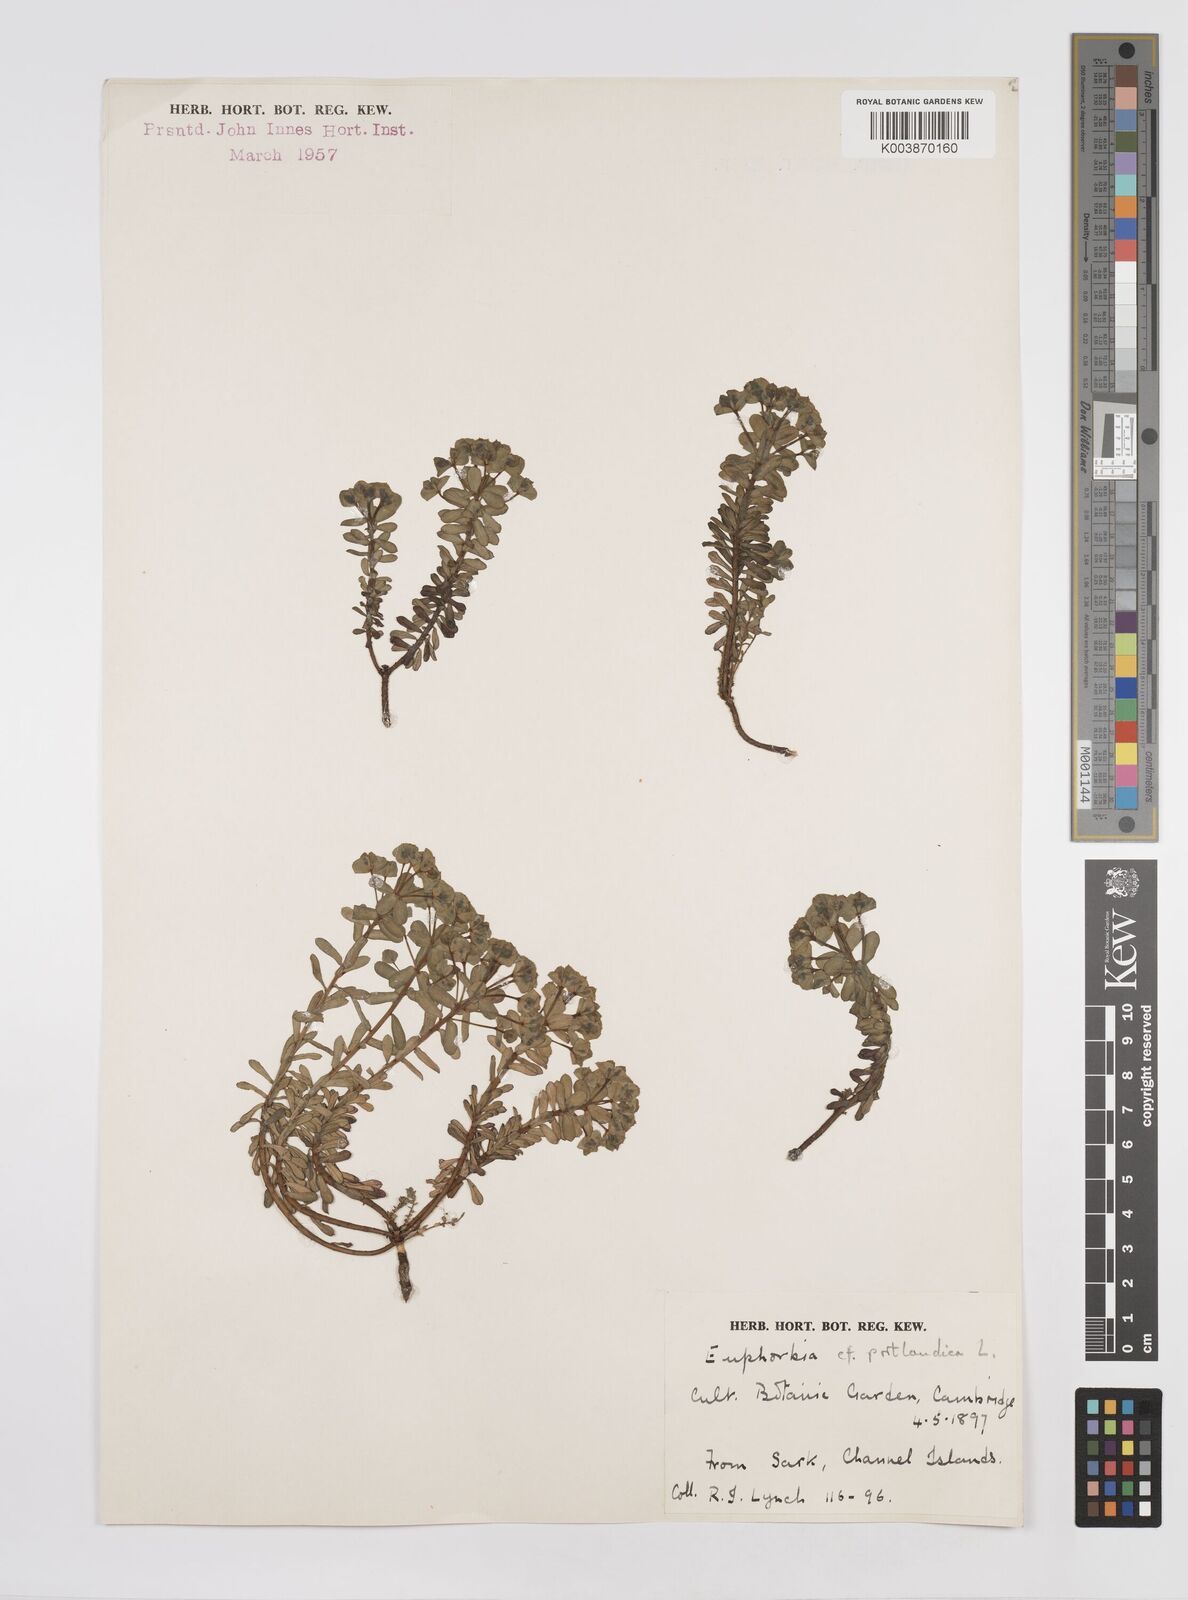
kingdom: Plantae
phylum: Tracheophyta
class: Magnoliopsida
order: Malpighiales
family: Euphorbiaceae
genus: Euphorbia
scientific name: Euphorbia portlandica
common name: Portland spurge
